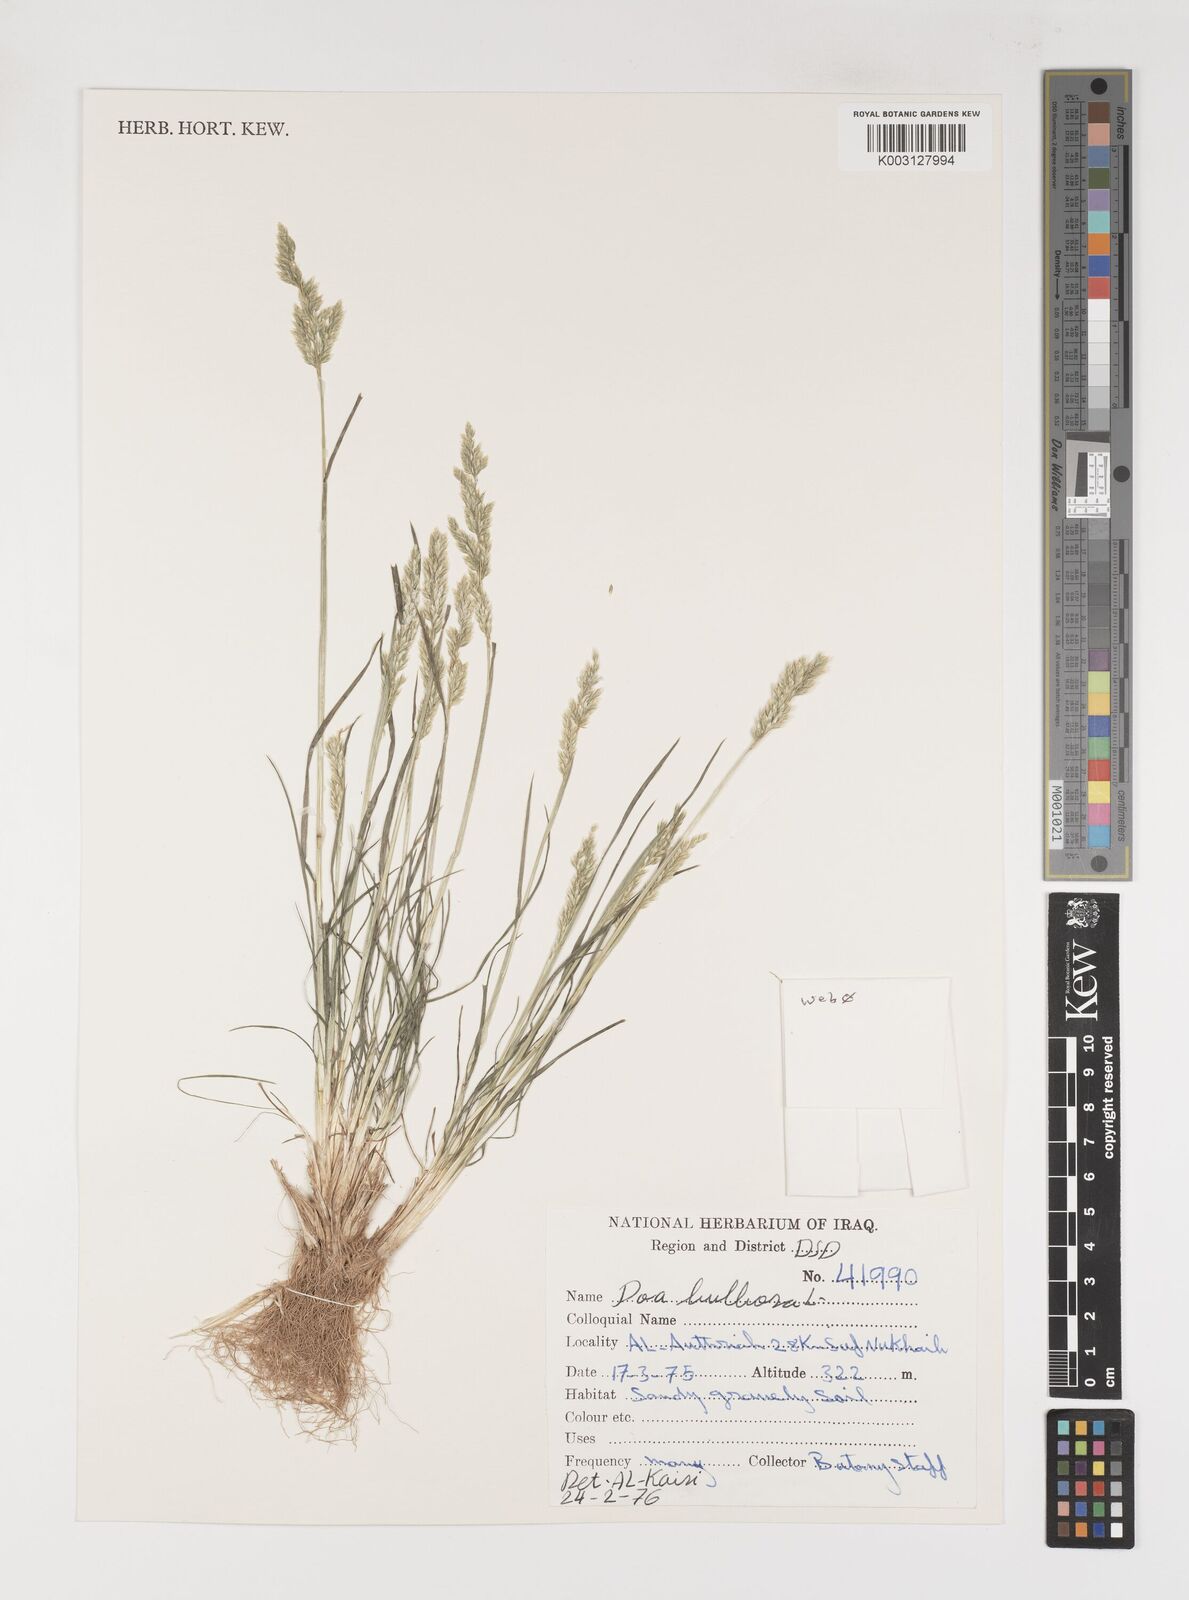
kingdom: Plantae
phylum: Tracheophyta
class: Liliopsida
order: Poales
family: Poaceae
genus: Poa
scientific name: Poa bulbosa
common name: Bulbous bluegrass
